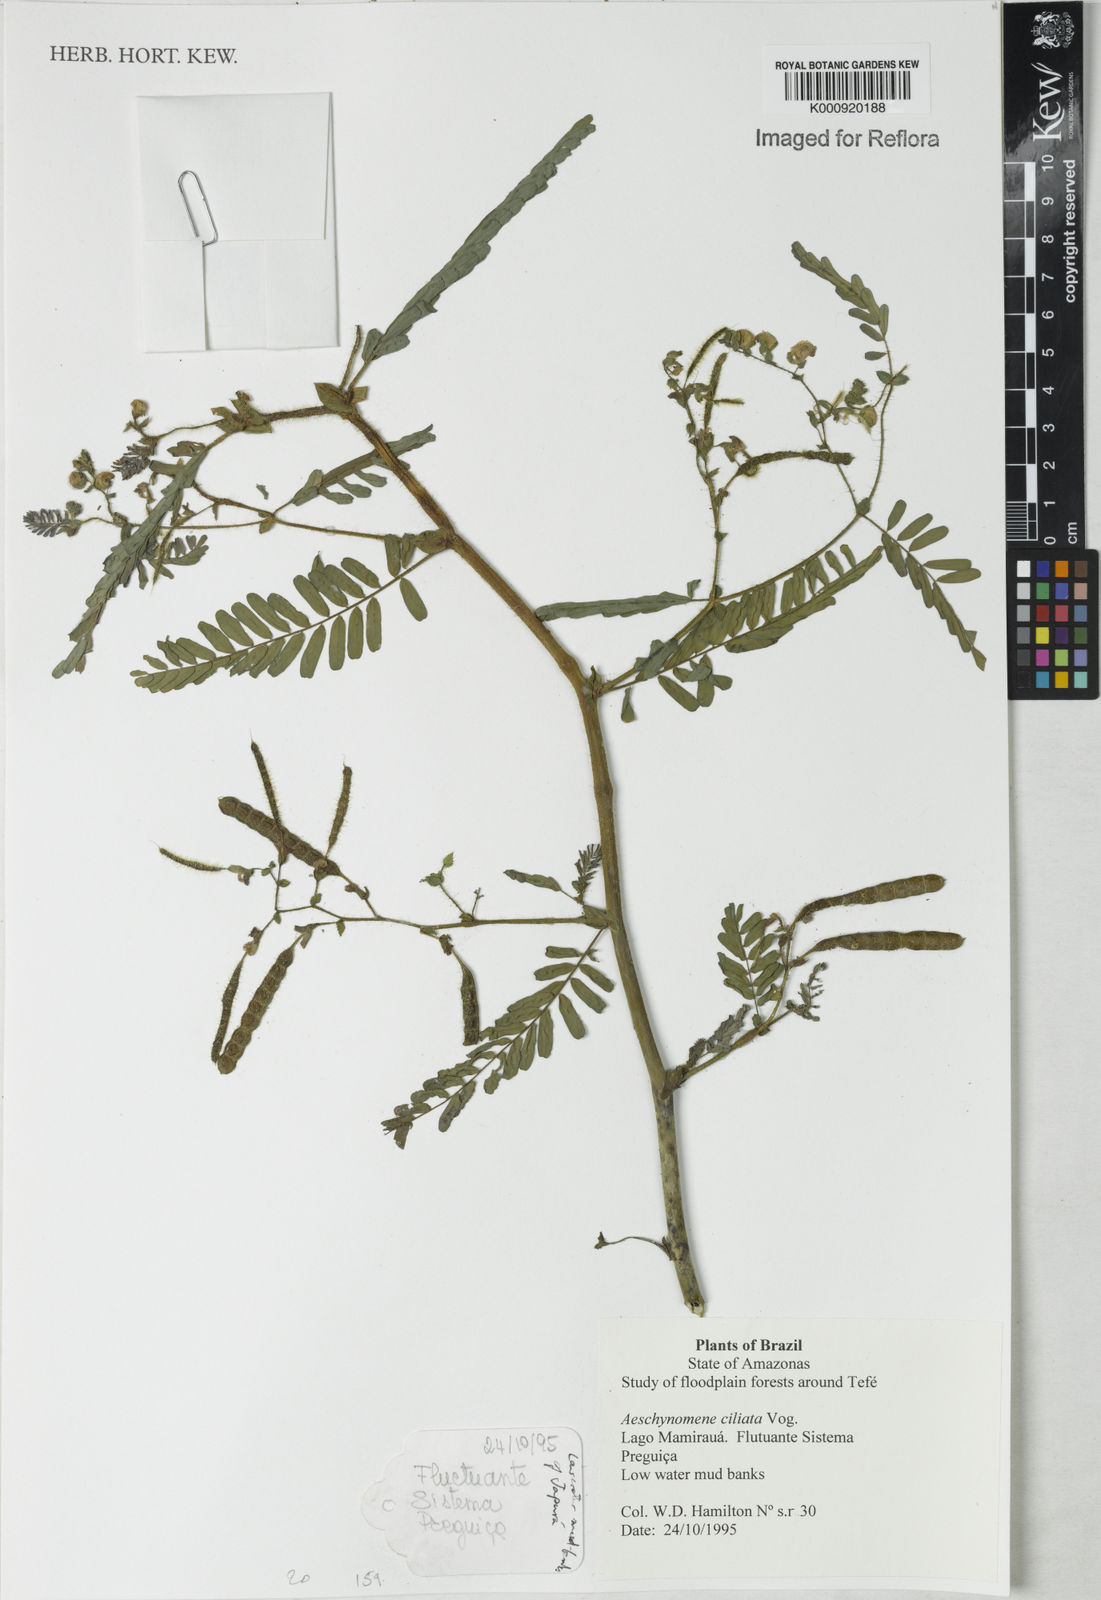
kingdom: Plantae
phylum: Tracheophyta
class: Magnoliopsida
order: Fabales
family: Fabaceae
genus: Aeschynomene
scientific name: Aeschynomene ciliata
